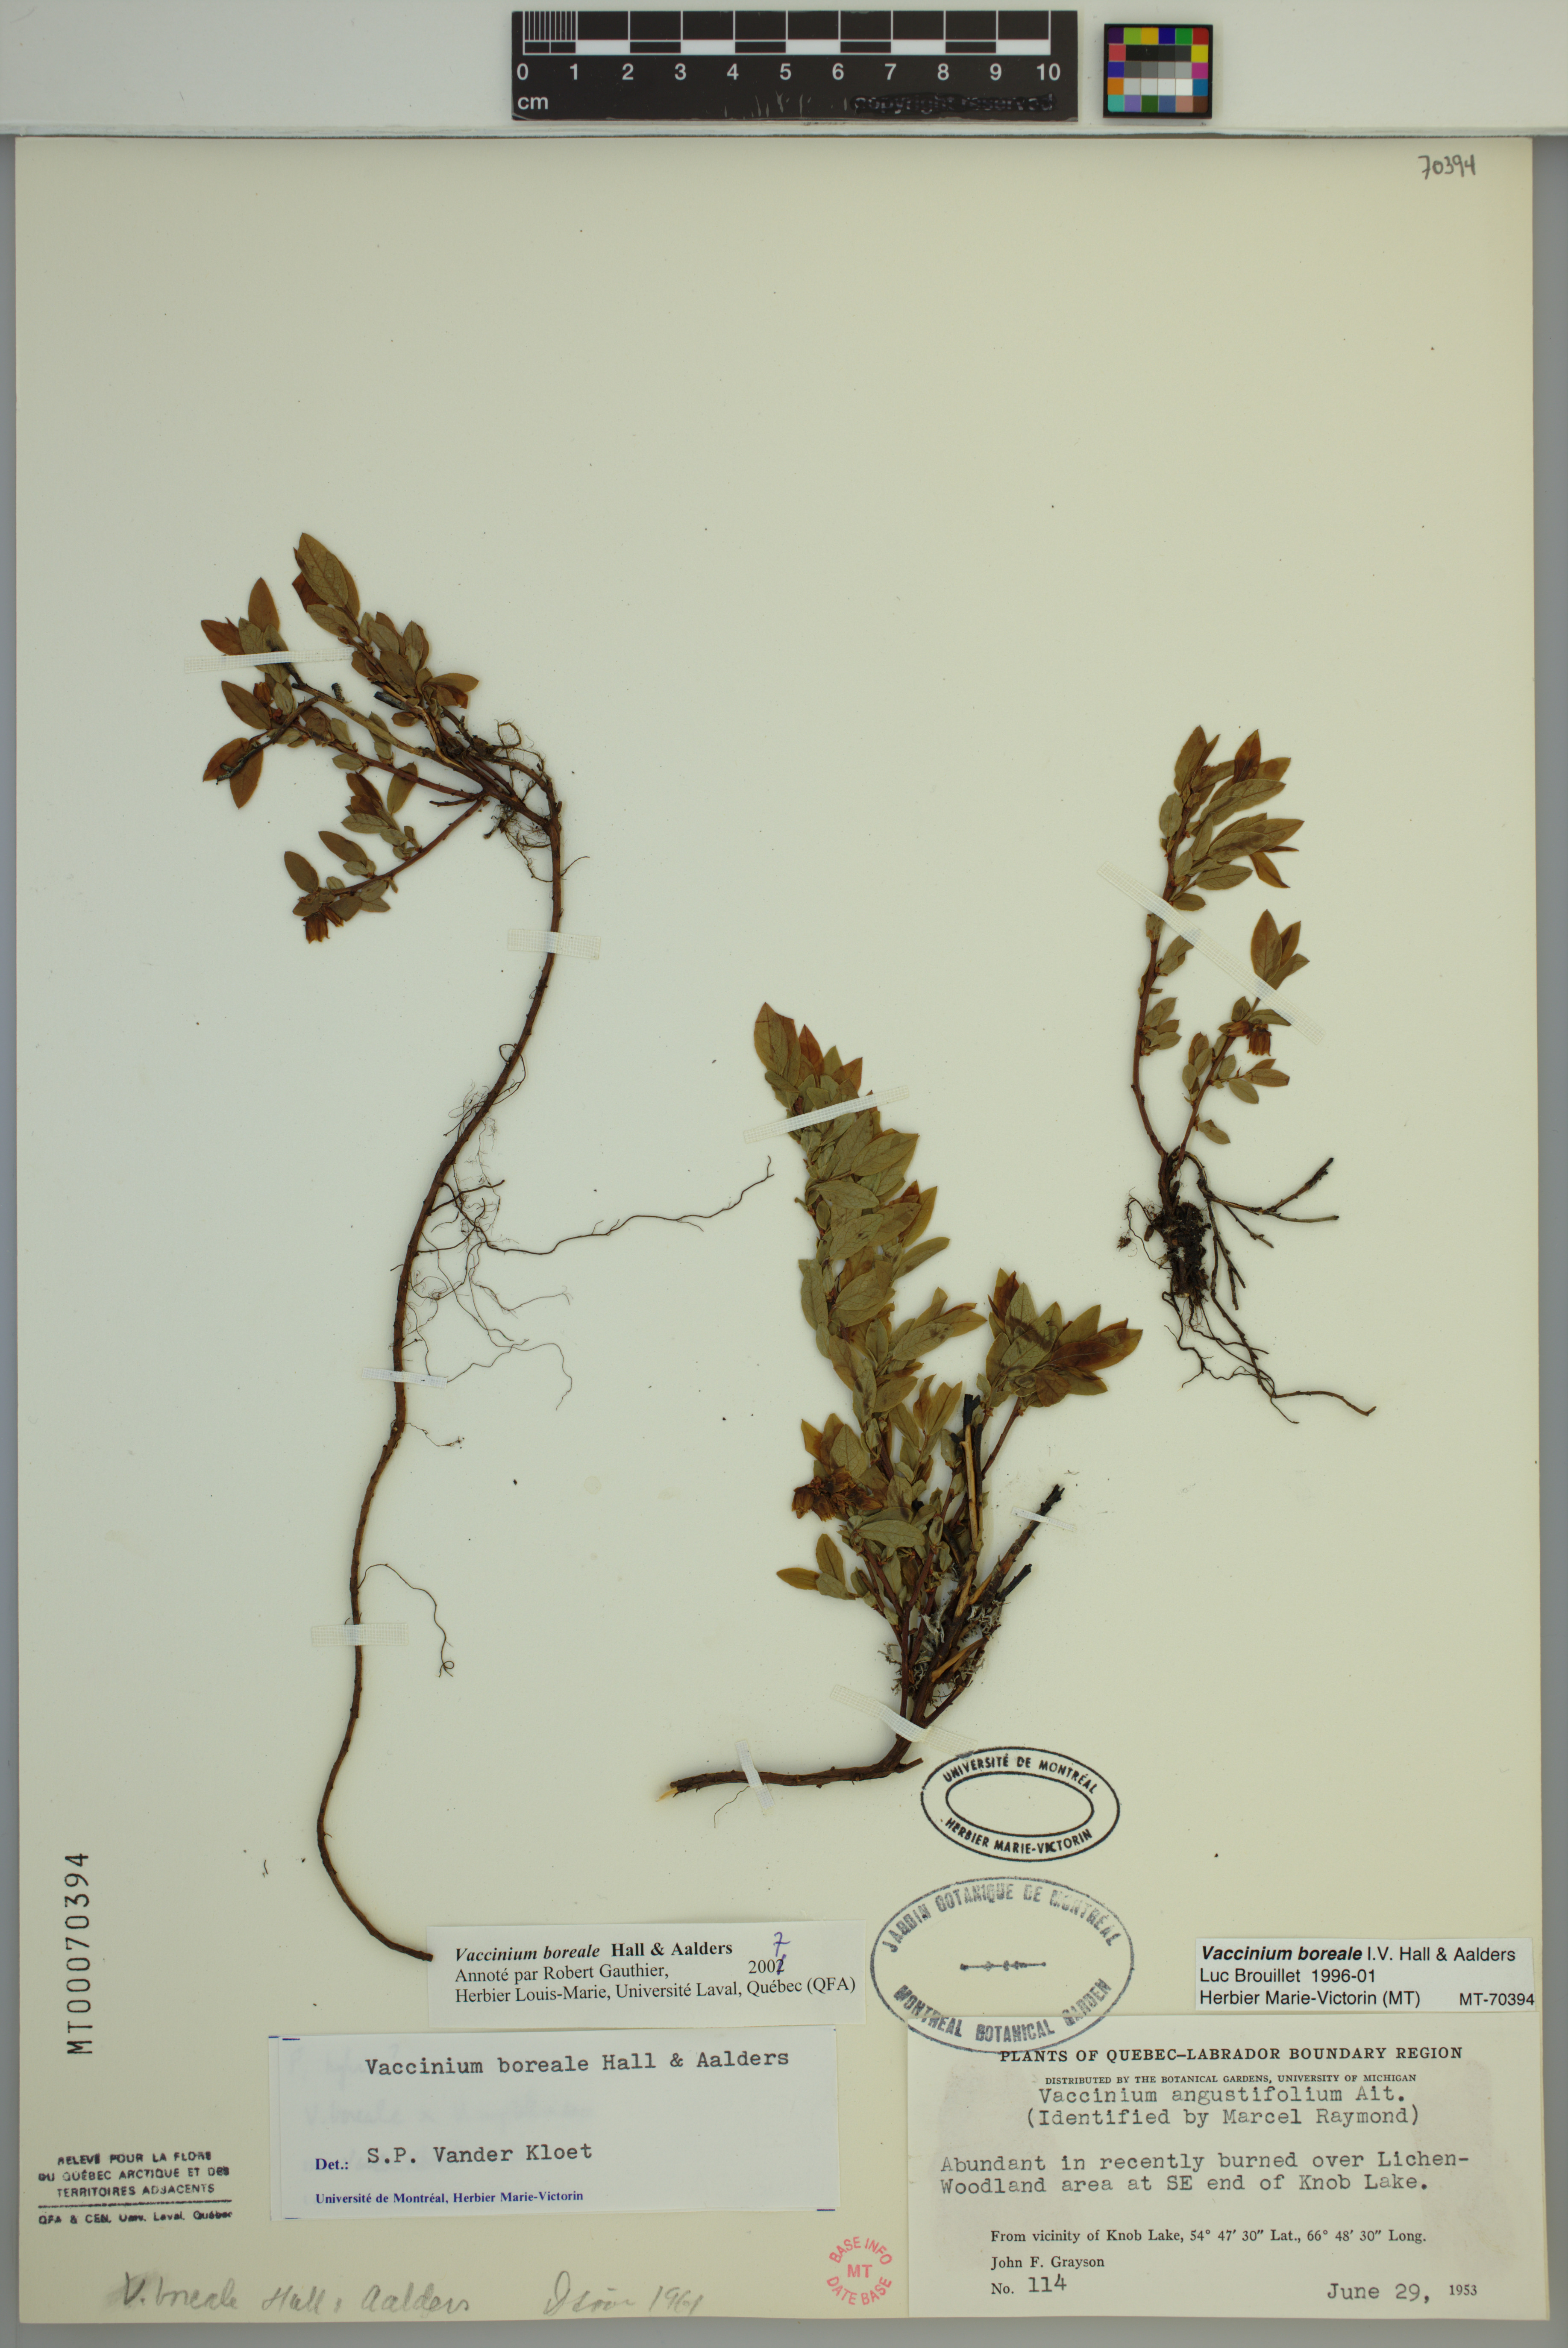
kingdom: Plantae
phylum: Tracheophyta
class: Magnoliopsida
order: Ericales
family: Ericaceae
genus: Vaccinium
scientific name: Vaccinium boreale
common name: Northern blueberry
